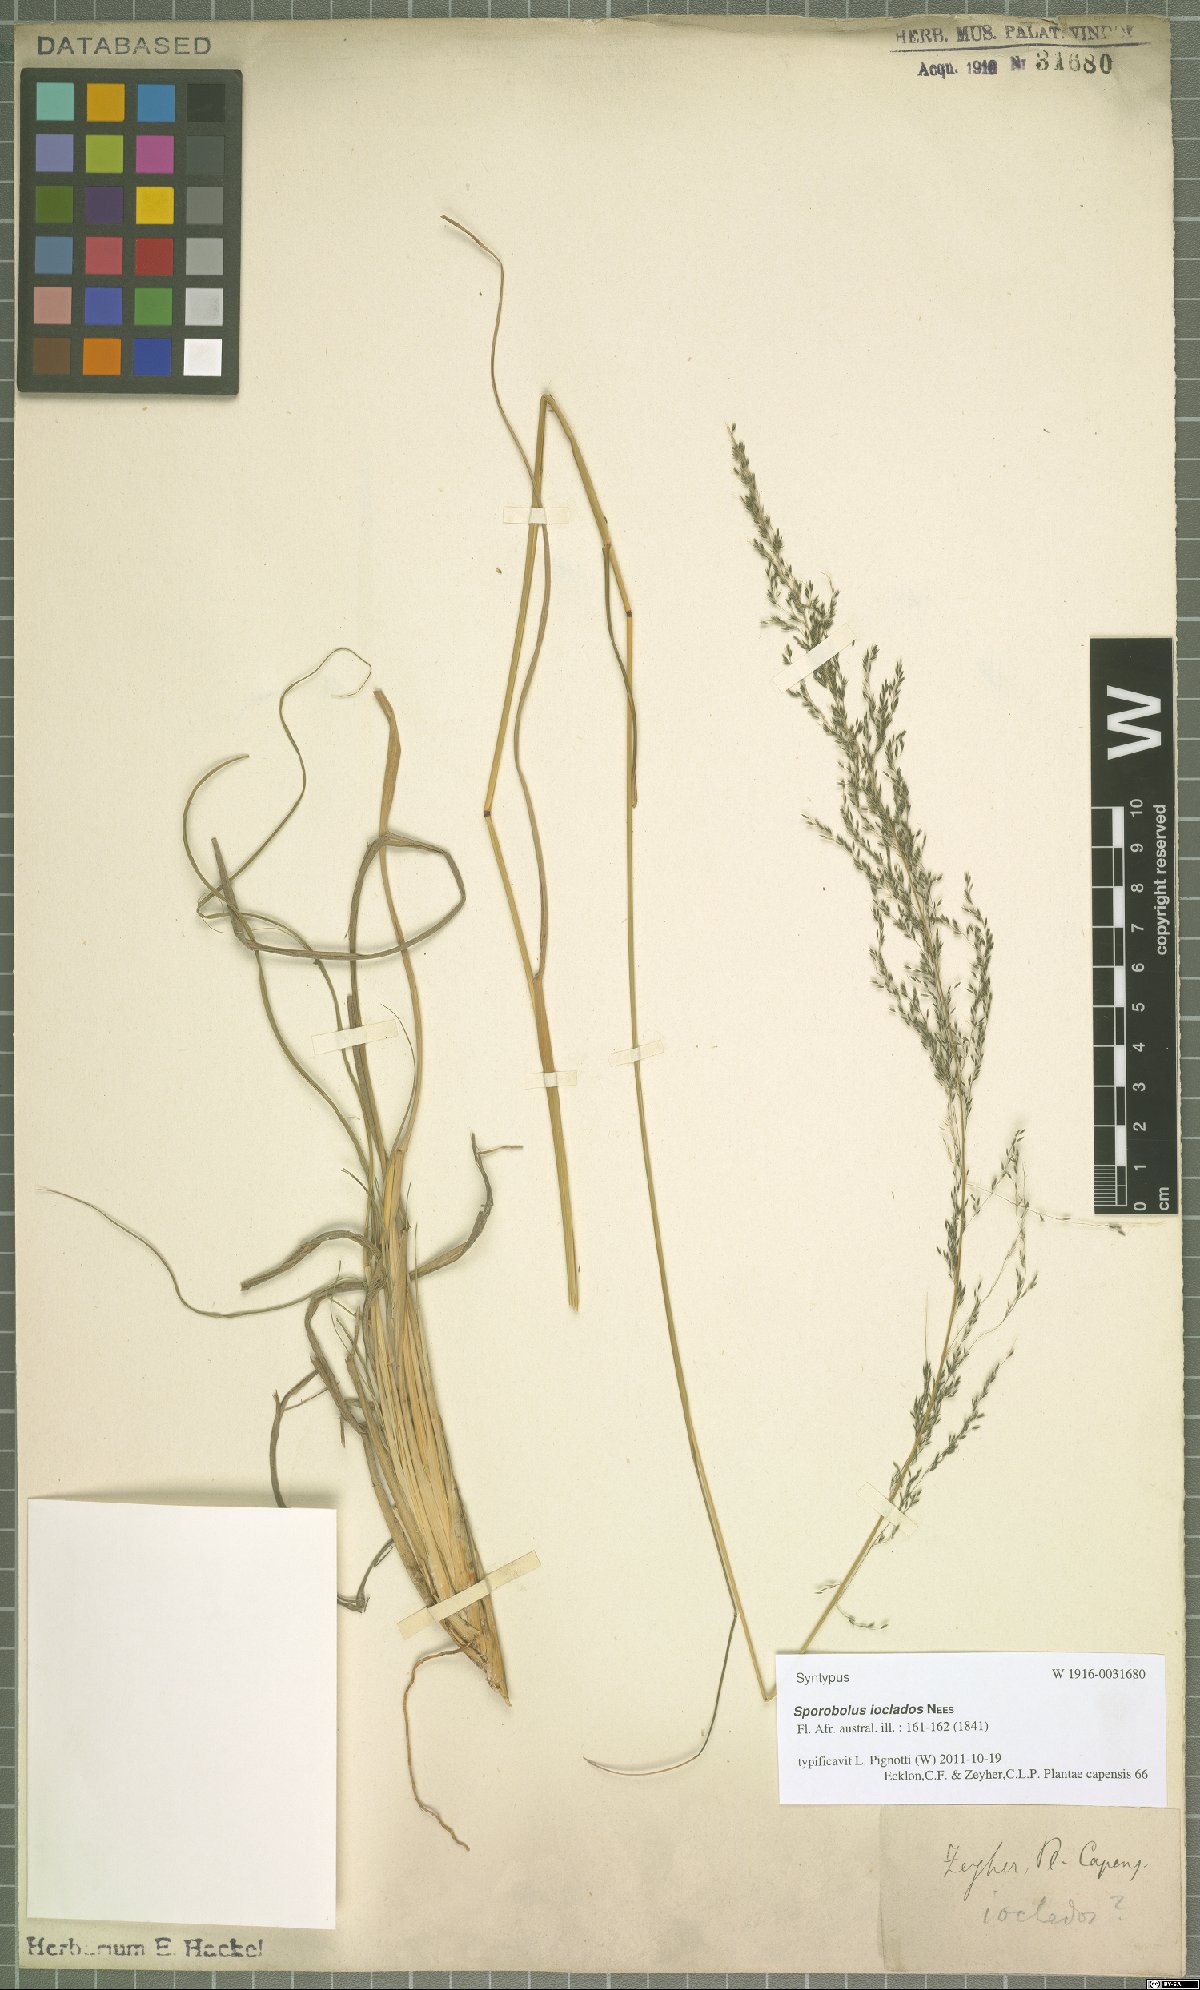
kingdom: Plantae
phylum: Tracheophyta
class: Liliopsida
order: Poales
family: Poaceae
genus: Sporobolus
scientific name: Sporobolus ioclados
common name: Pan dropseed
